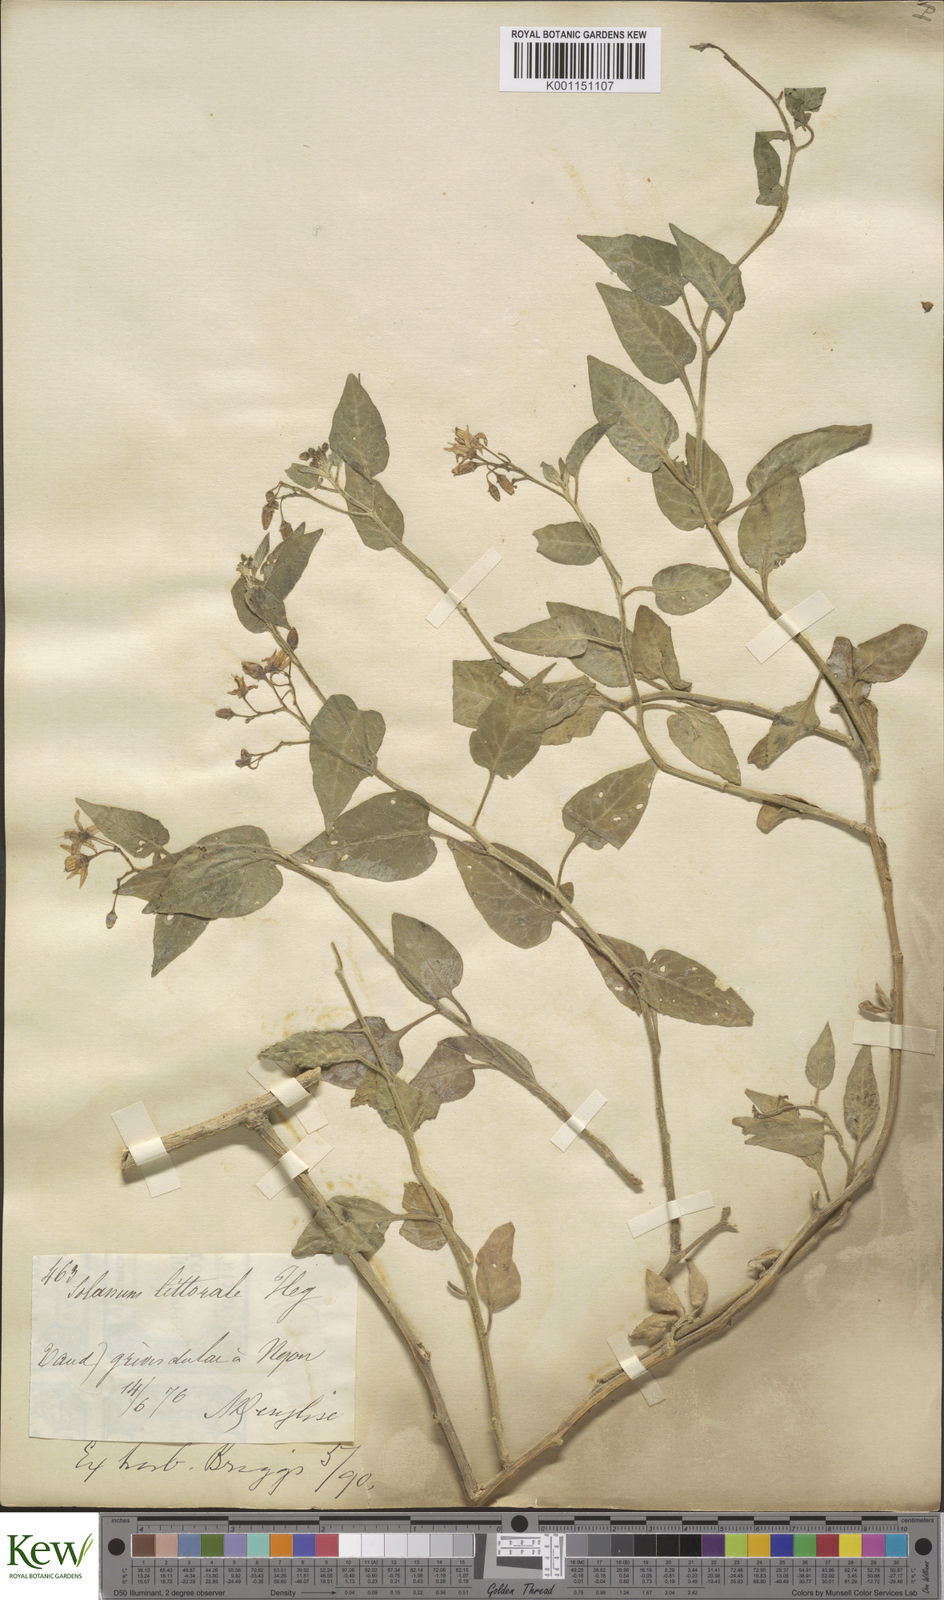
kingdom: Plantae
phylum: Tracheophyta
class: Magnoliopsida
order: Solanales
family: Solanaceae
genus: Solanum
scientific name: Solanum dulcamara
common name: Climbing nightshade
